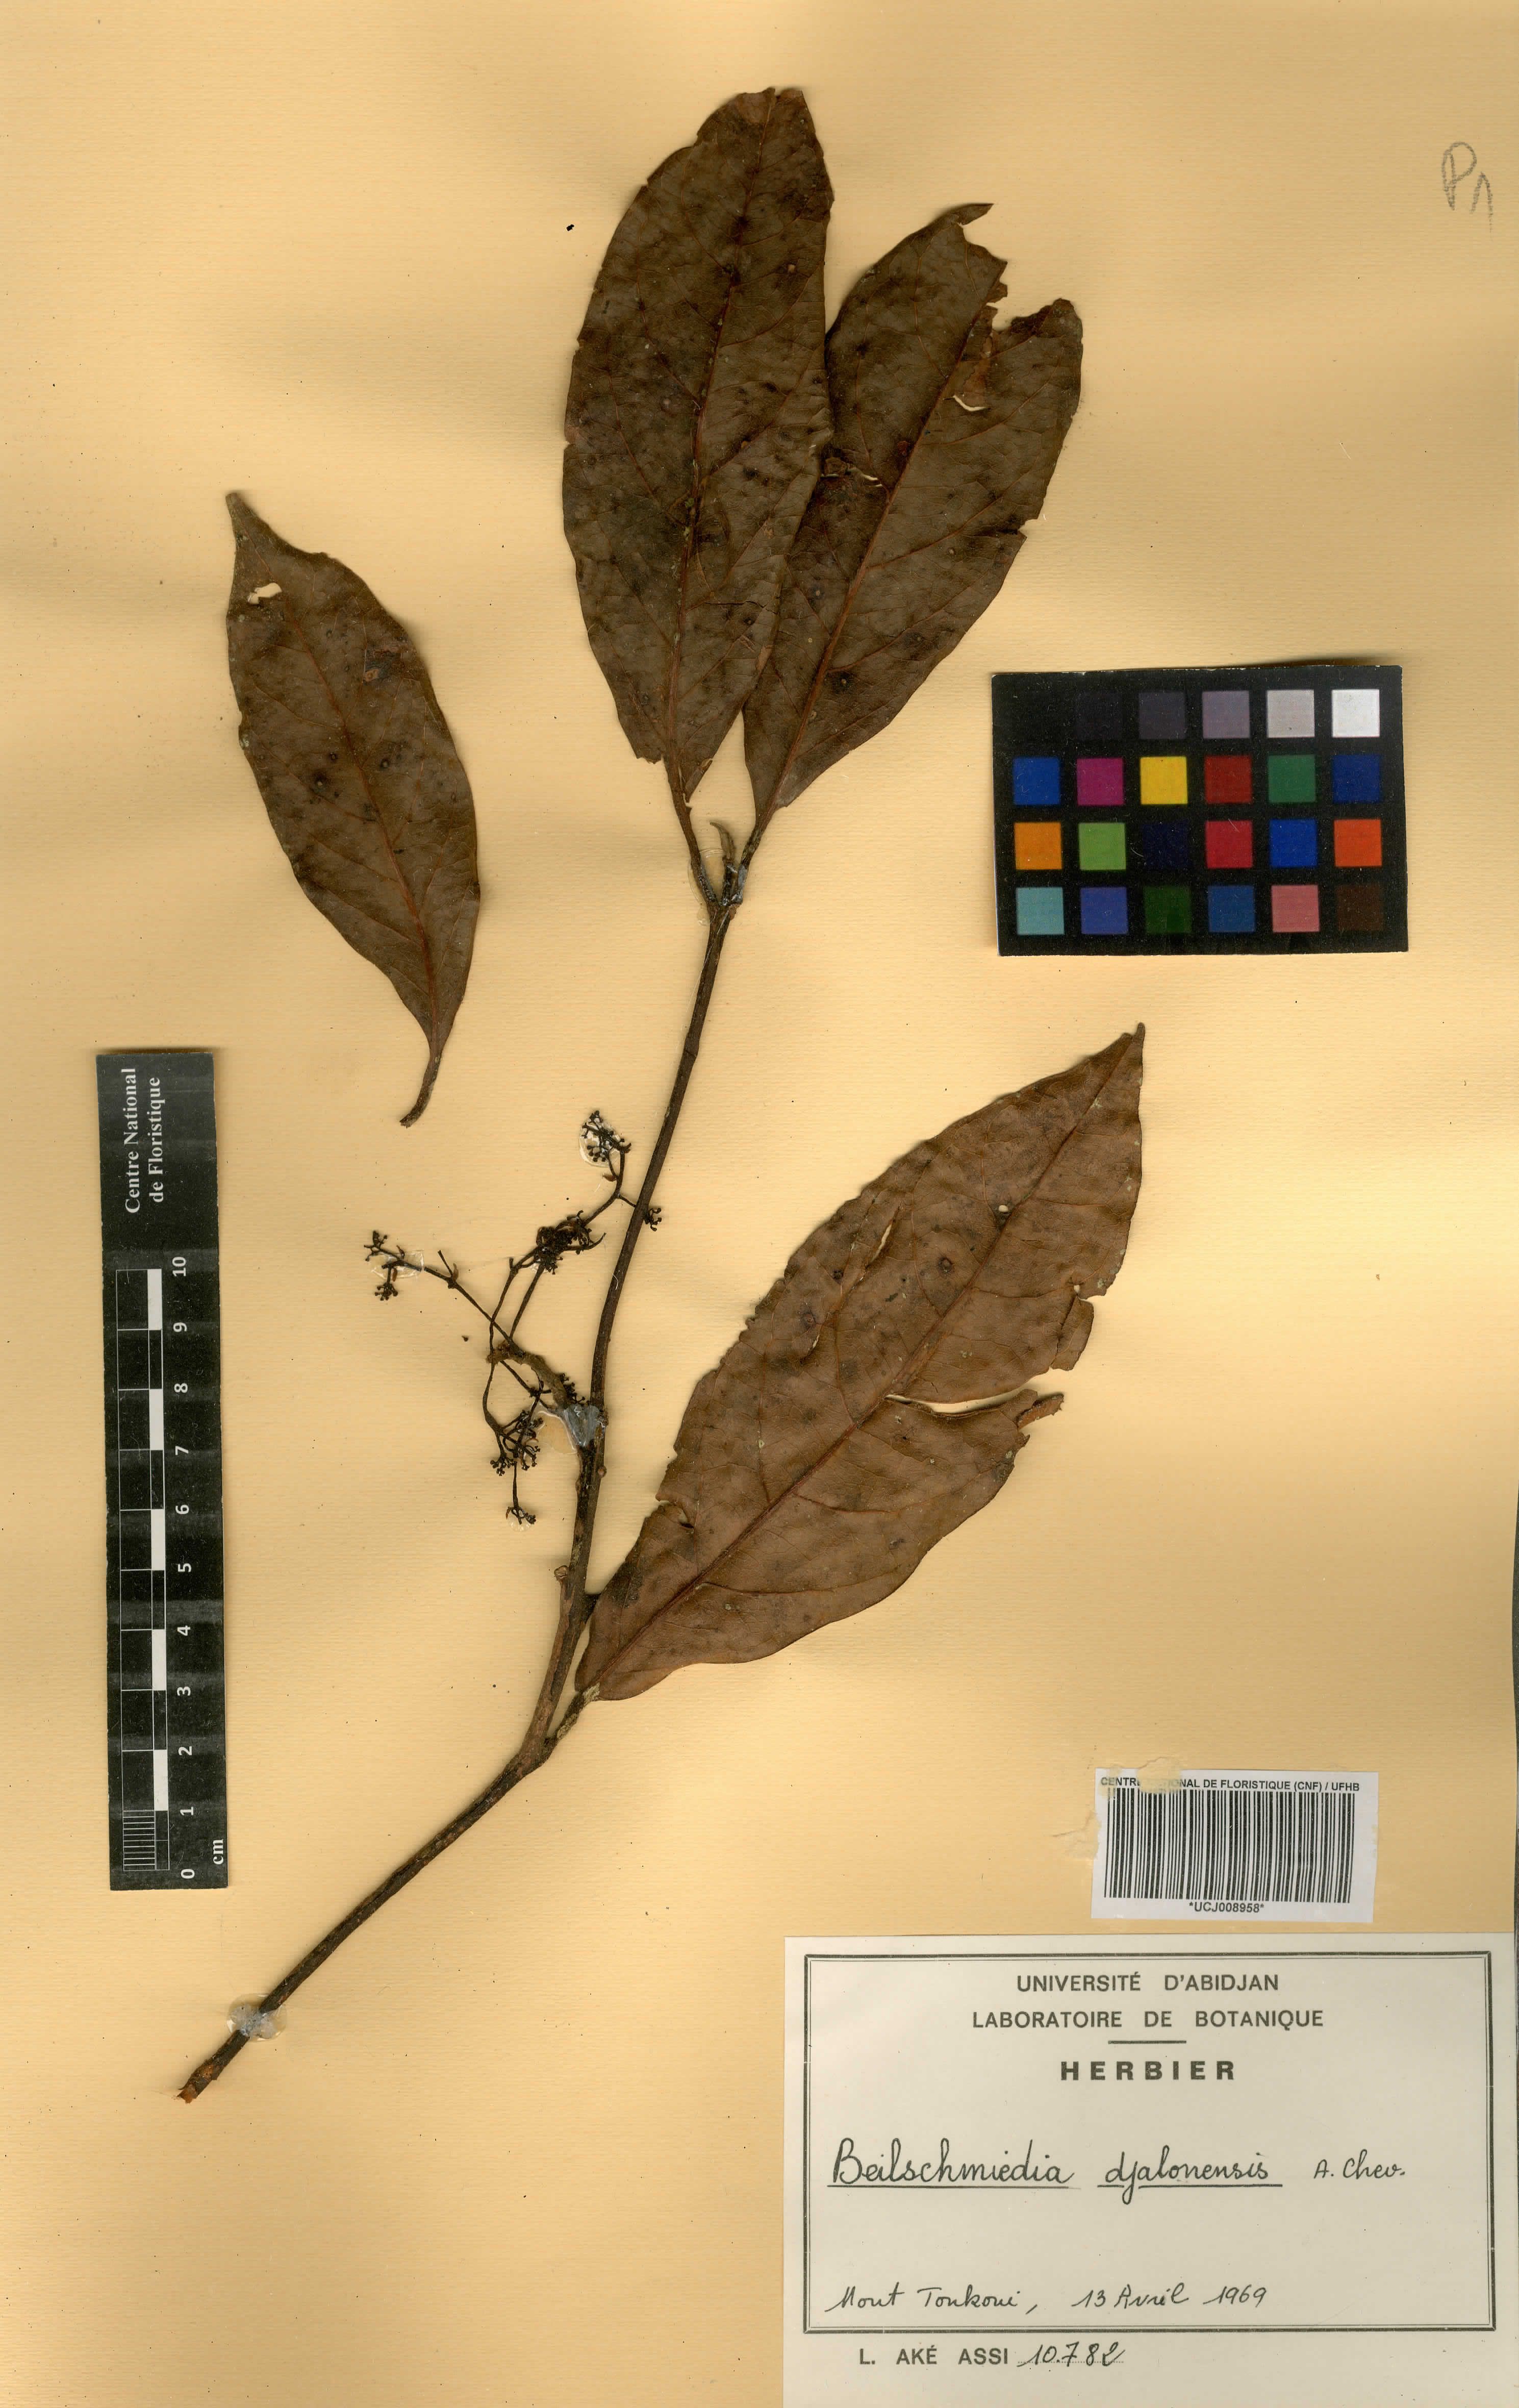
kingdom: Plantae
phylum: Tracheophyta
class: Magnoliopsida
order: Laurales
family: Lauraceae
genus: Beilschmiedia
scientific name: Beilschmiedia djalonensis
